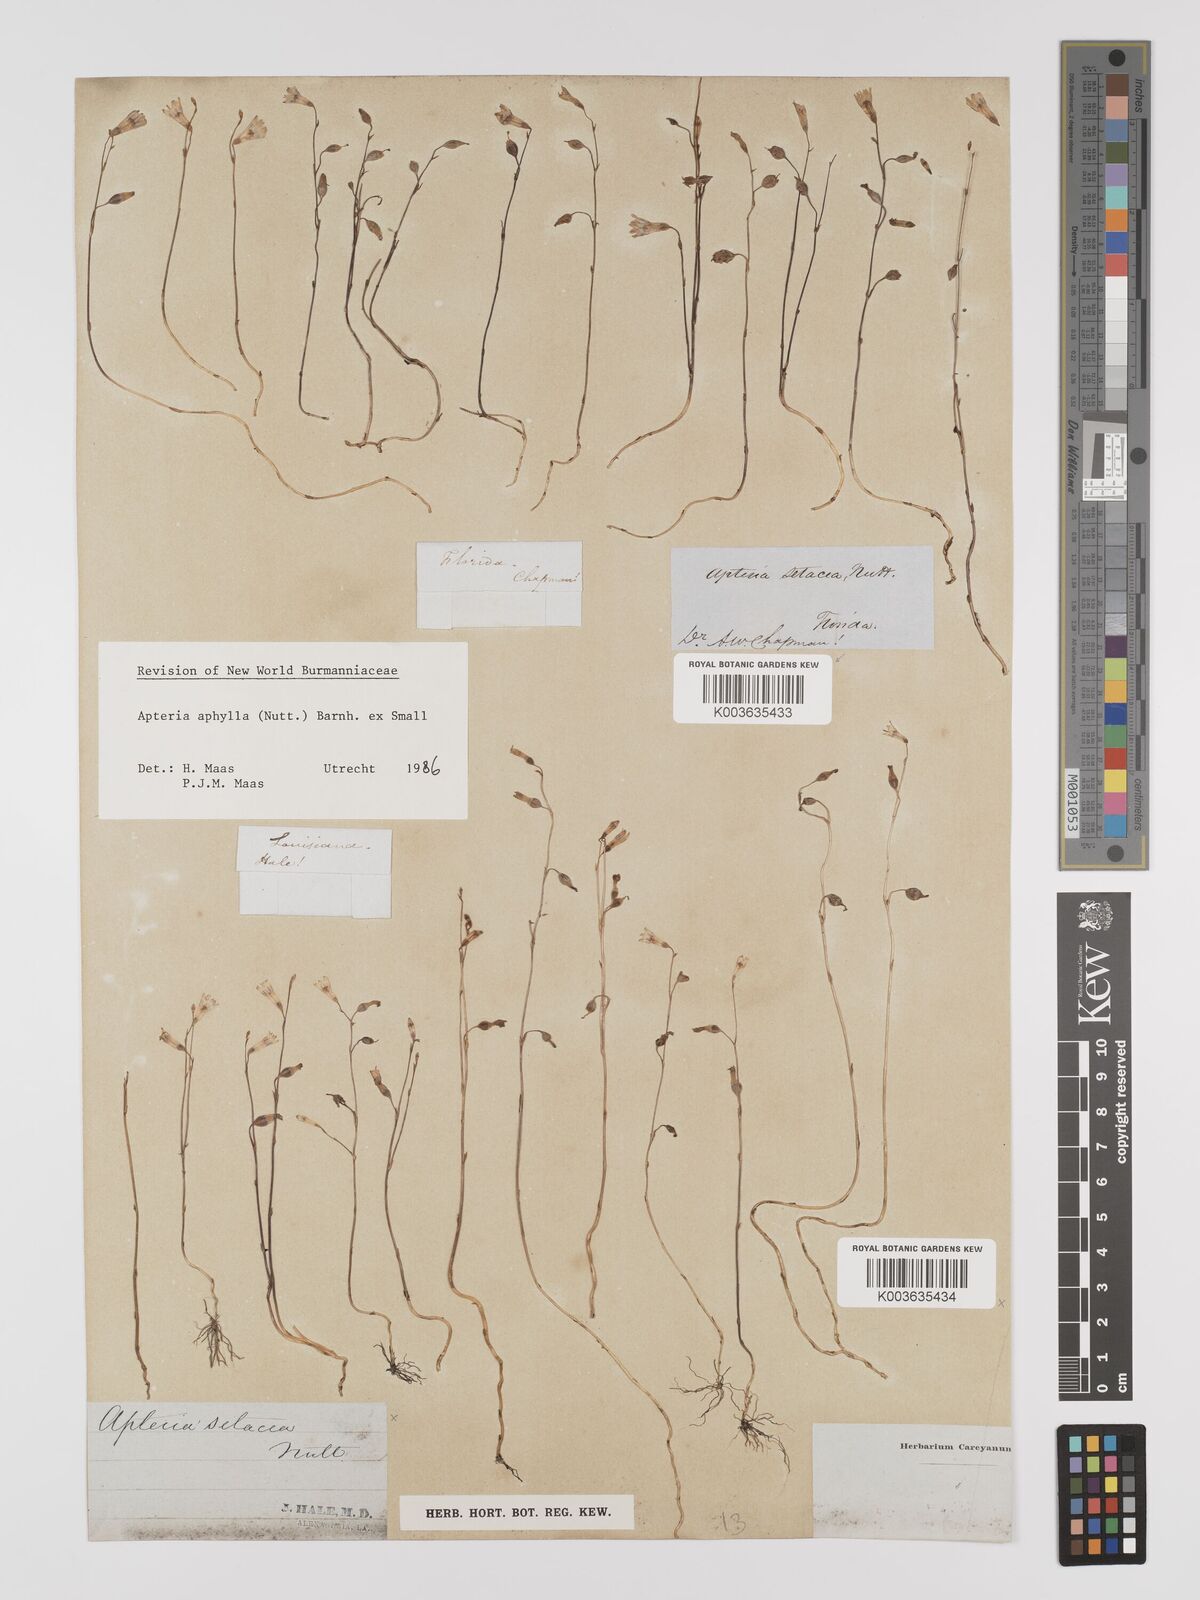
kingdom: Plantae
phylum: Tracheophyta
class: Liliopsida
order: Dioscoreales
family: Burmanniaceae
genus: Apteria
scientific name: Apteria aphylla
